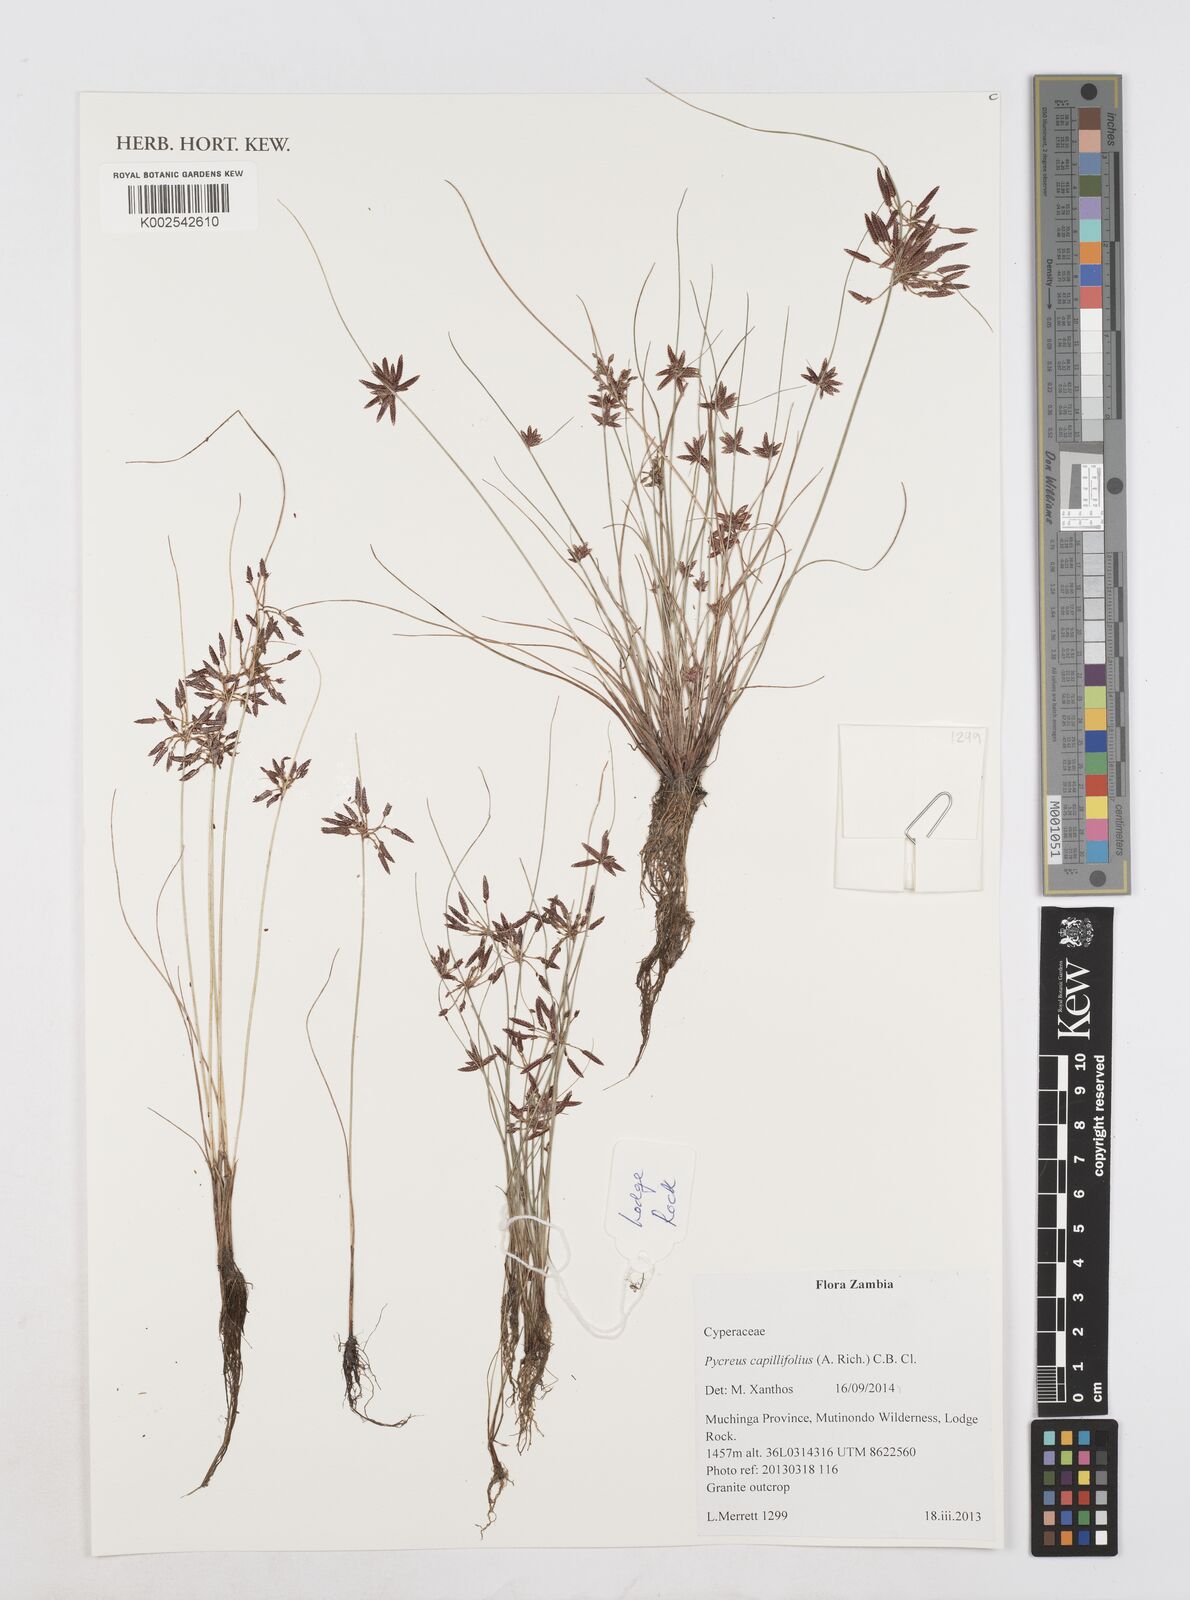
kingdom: Plantae
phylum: Tracheophyta
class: Liliopsida
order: Poales
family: Cyperaceae
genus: Cyperus
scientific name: Cyperus capillifolius
